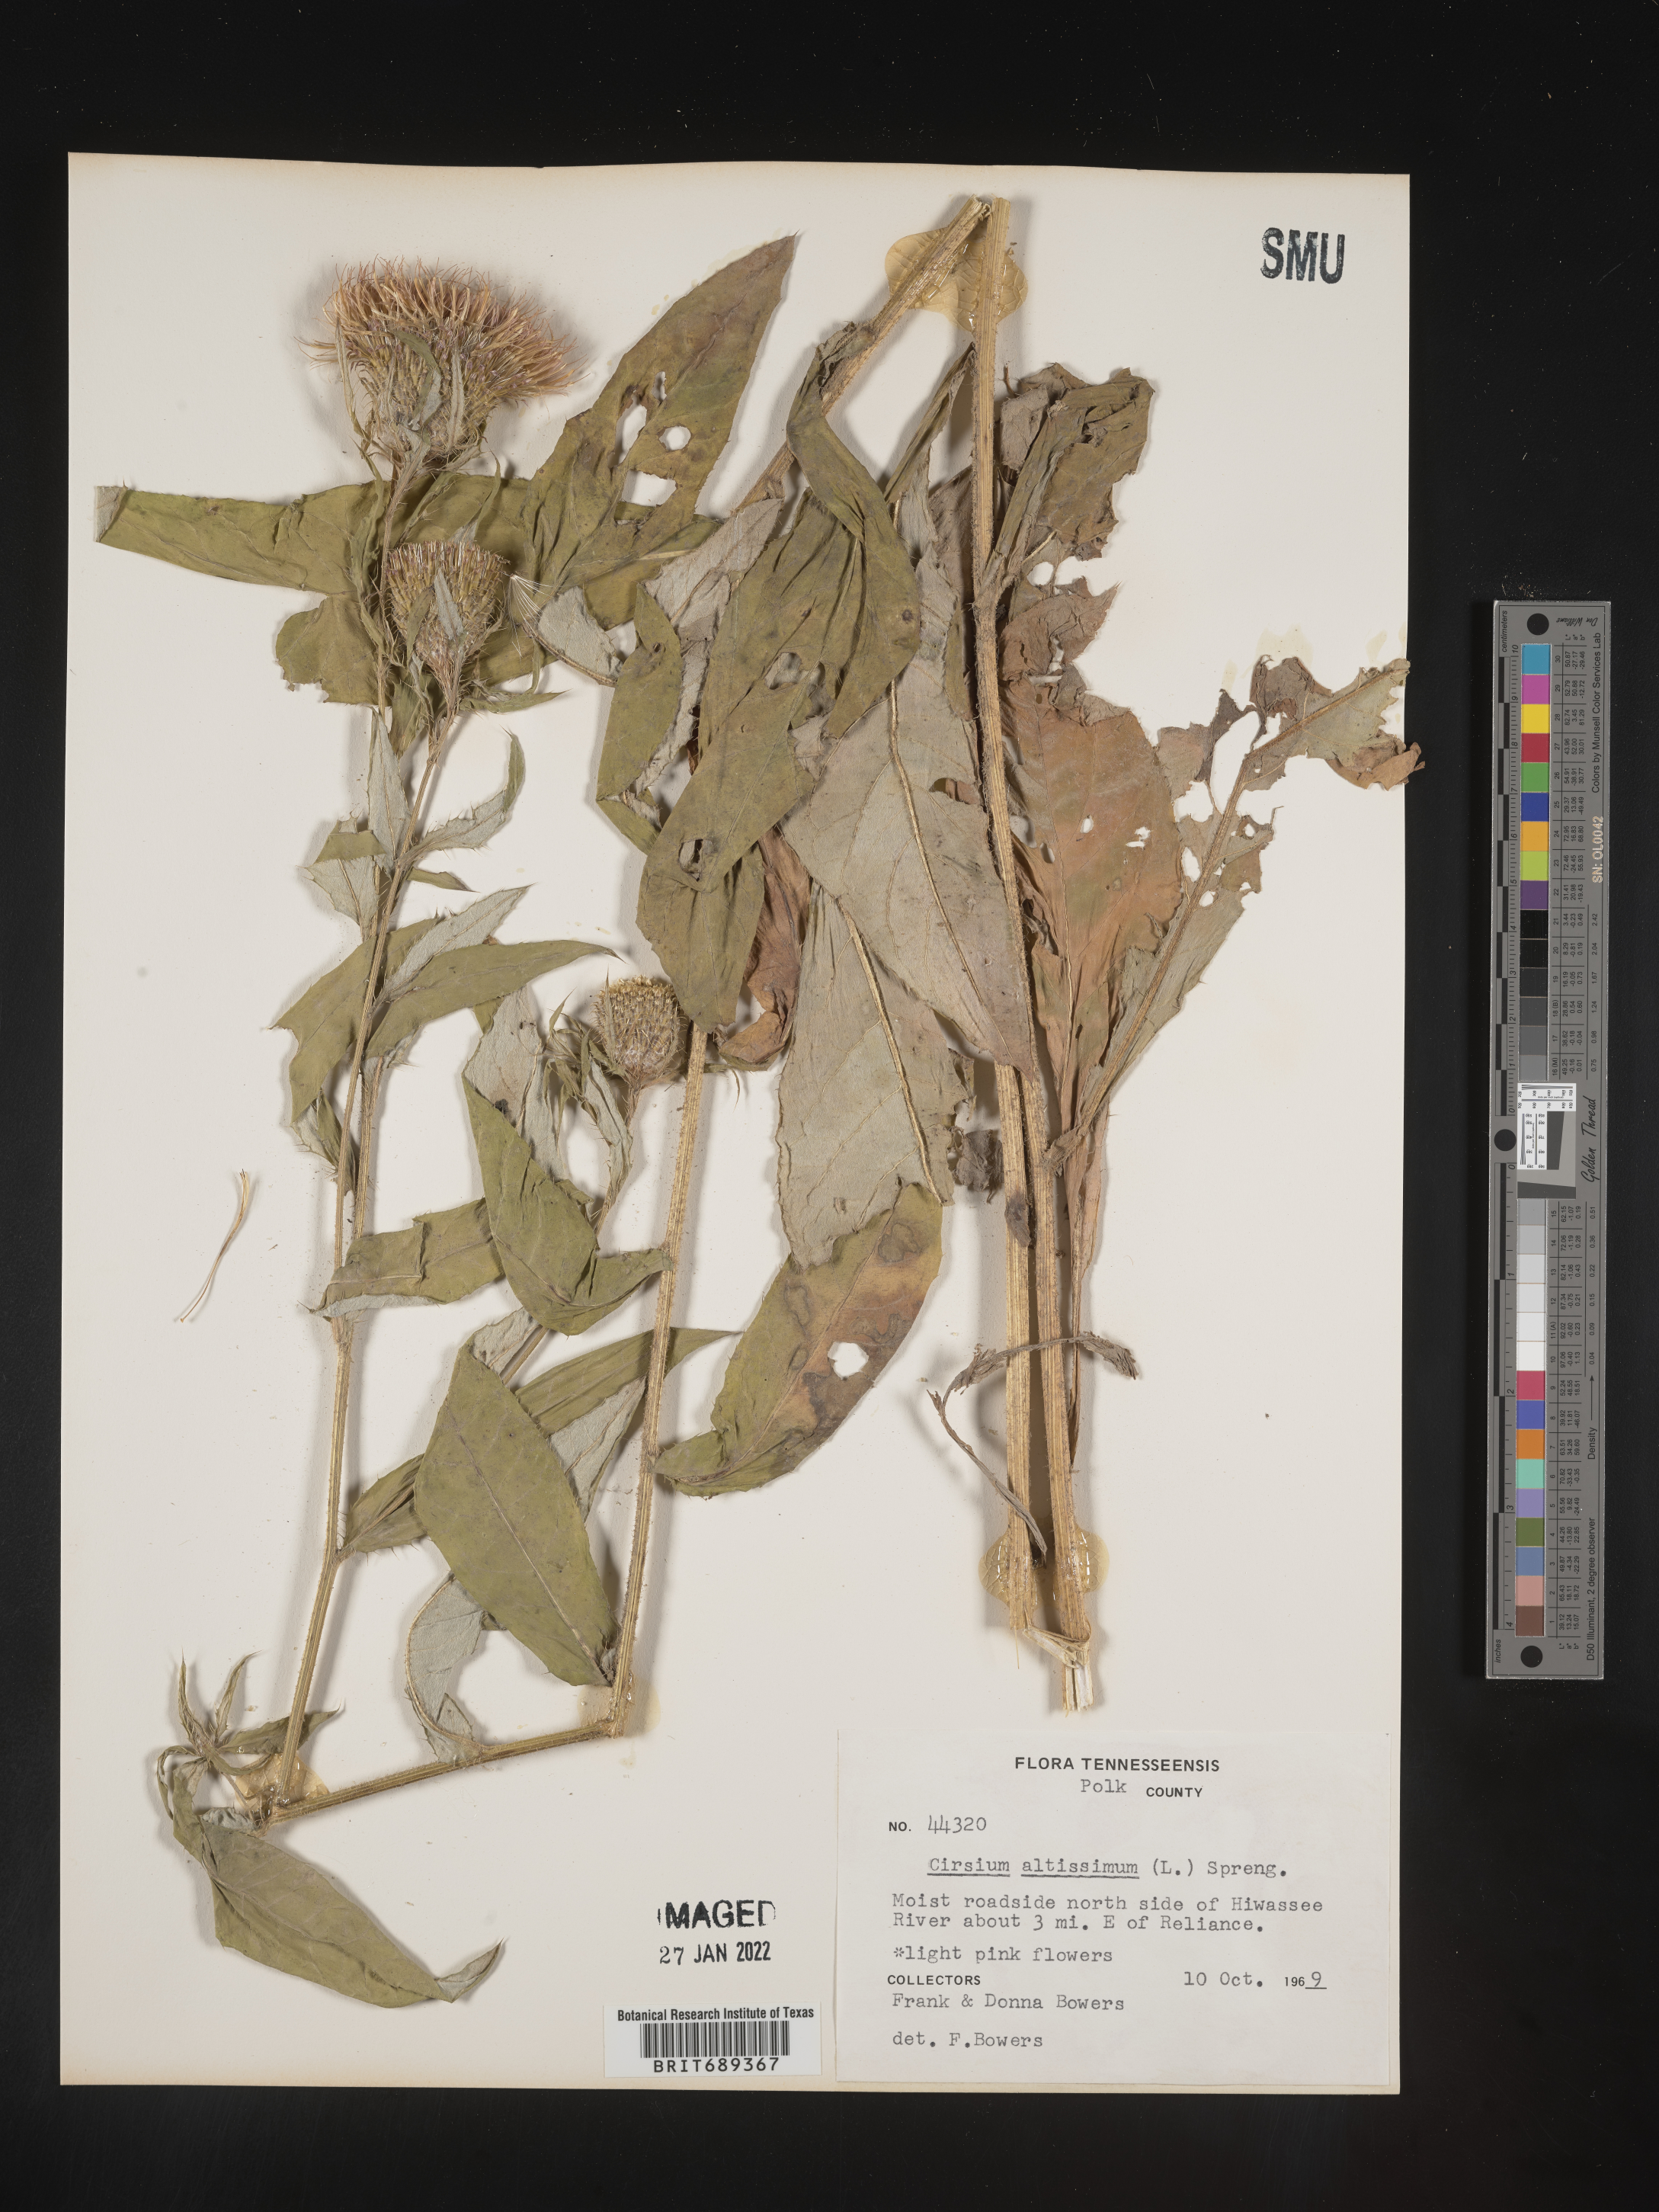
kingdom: Plantae
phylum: Tracheophyta
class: Magnoliopsida
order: Asterales
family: Asteraceae
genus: Cirsium
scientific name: Cirsium altissimum
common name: Roadside thistle
